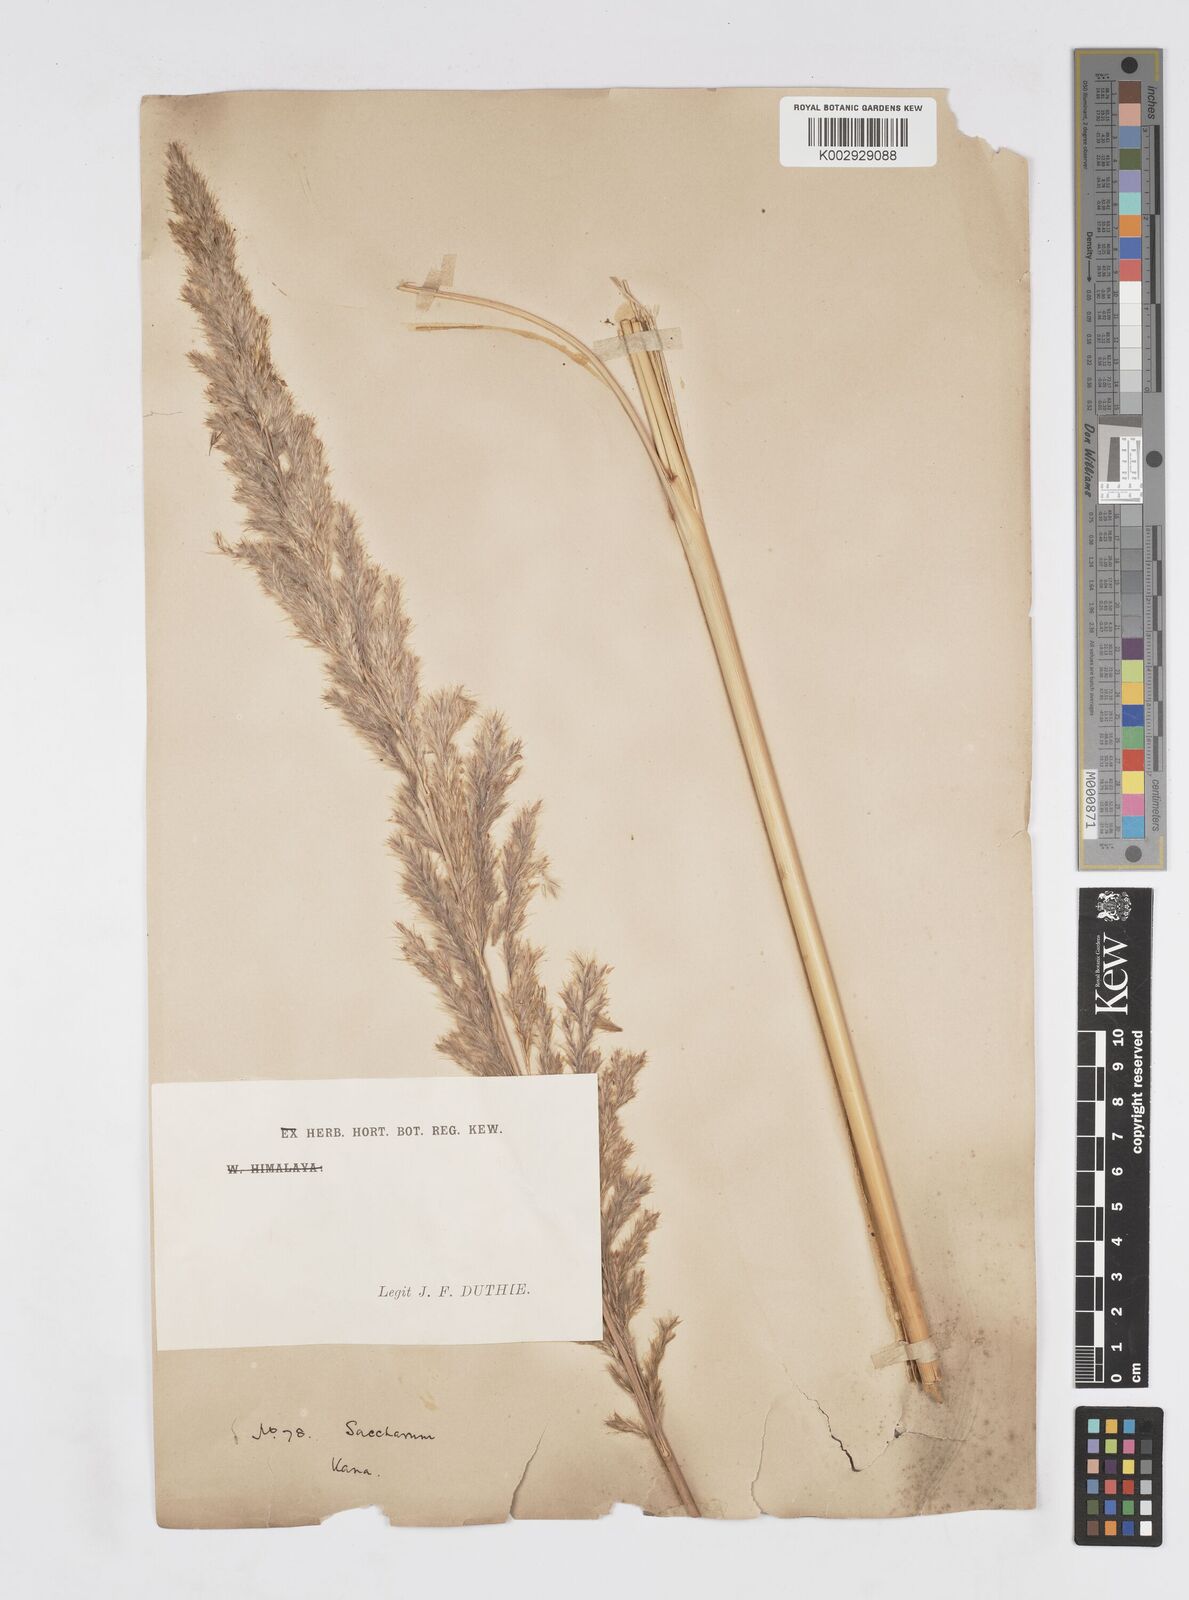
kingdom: Plantae
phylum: Tracheophyta
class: Liliopsida
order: Poales
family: Poaceae
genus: Tripidium
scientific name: Tripidium bengalense
